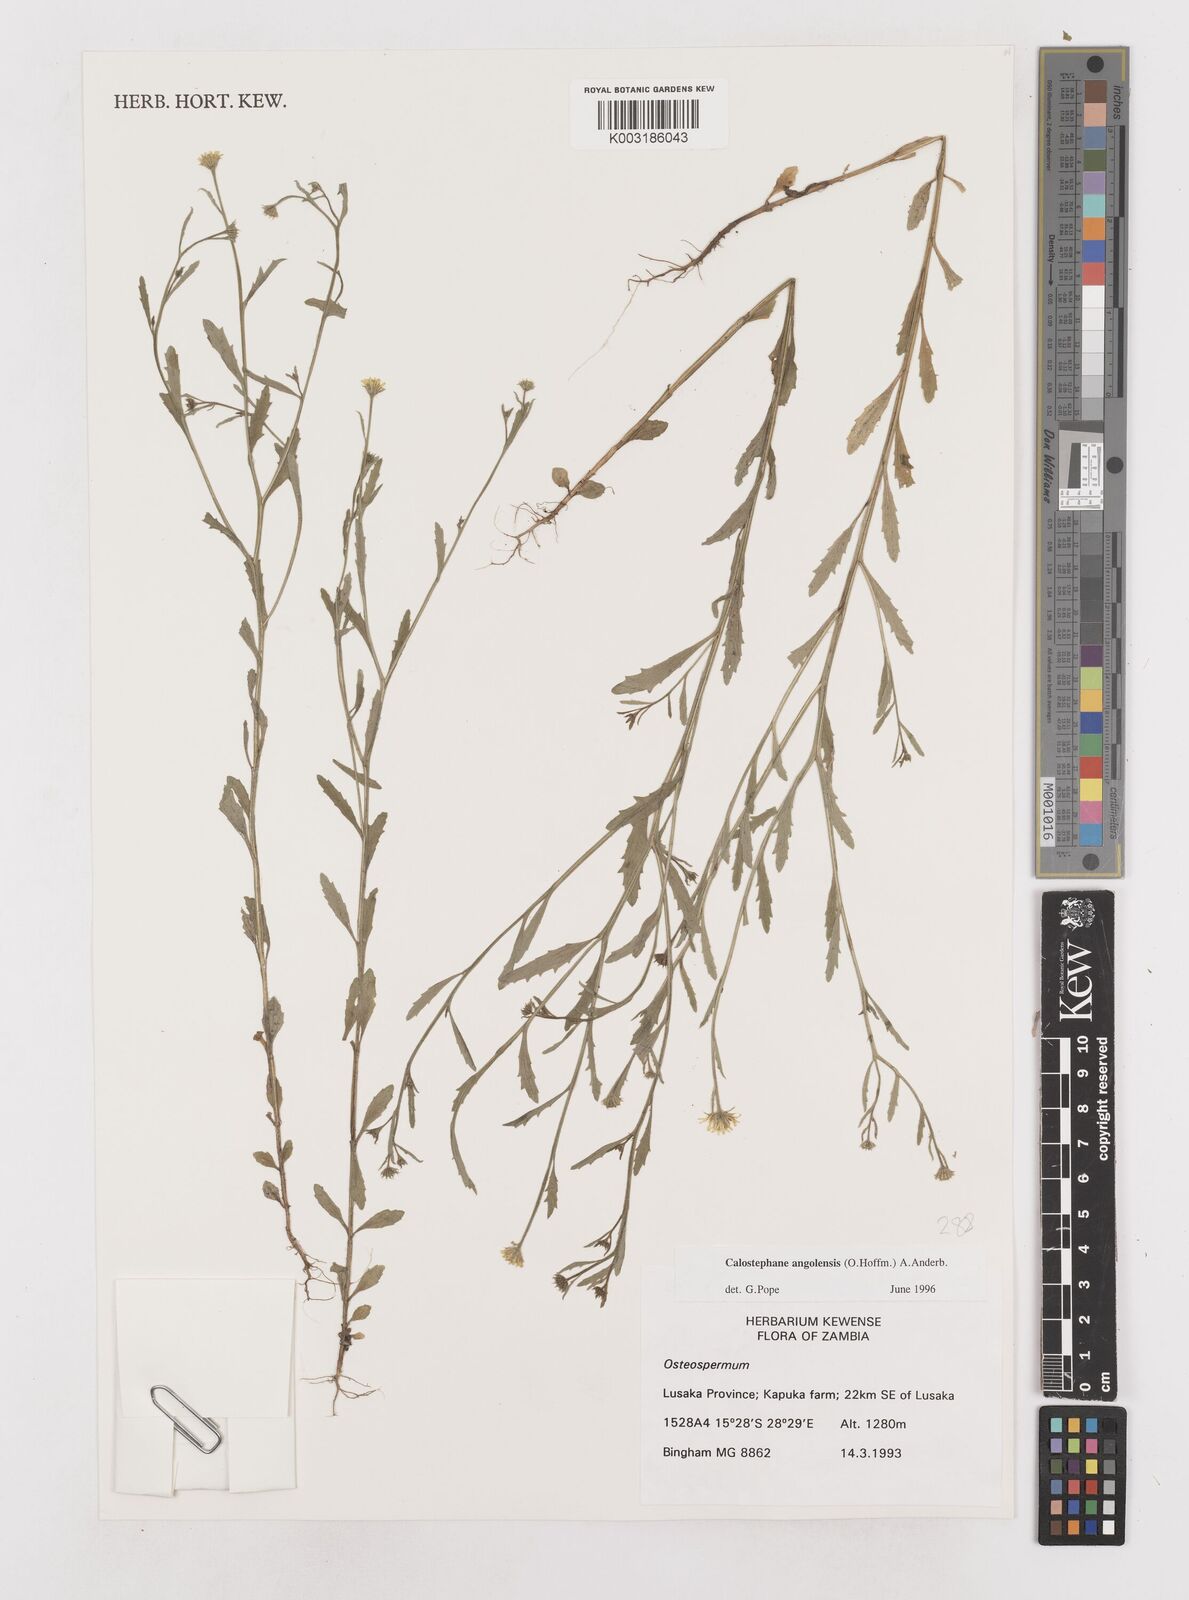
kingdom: Plantae
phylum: Tracheophyta
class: Magnoliopsida
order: Asterales
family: Asteraceae
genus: Calostephane
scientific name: Calostephane angolensis
